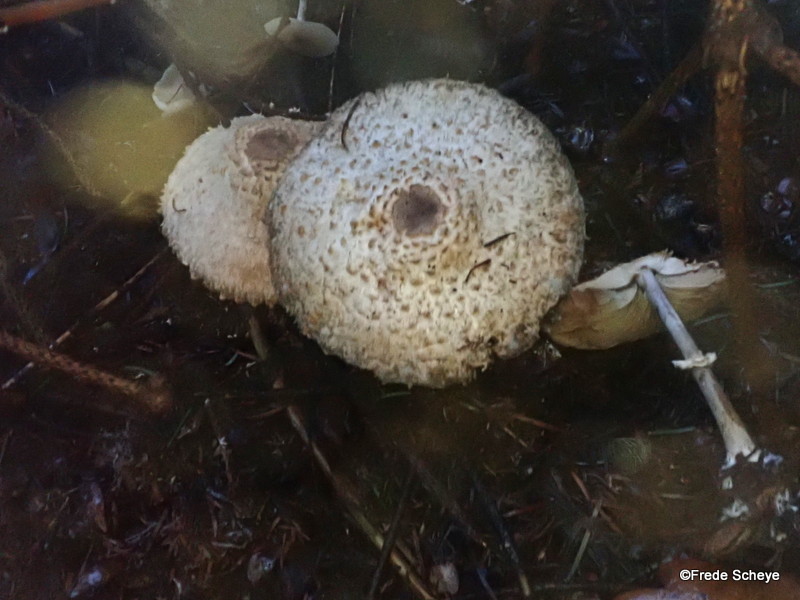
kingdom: Fungi
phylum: Basidiomycota
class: Agaricomycetes
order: Agaricales
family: Agaricaceae
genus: Leucoagaricus
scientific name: Leucoagaricus nympharum
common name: gran-silkehat
